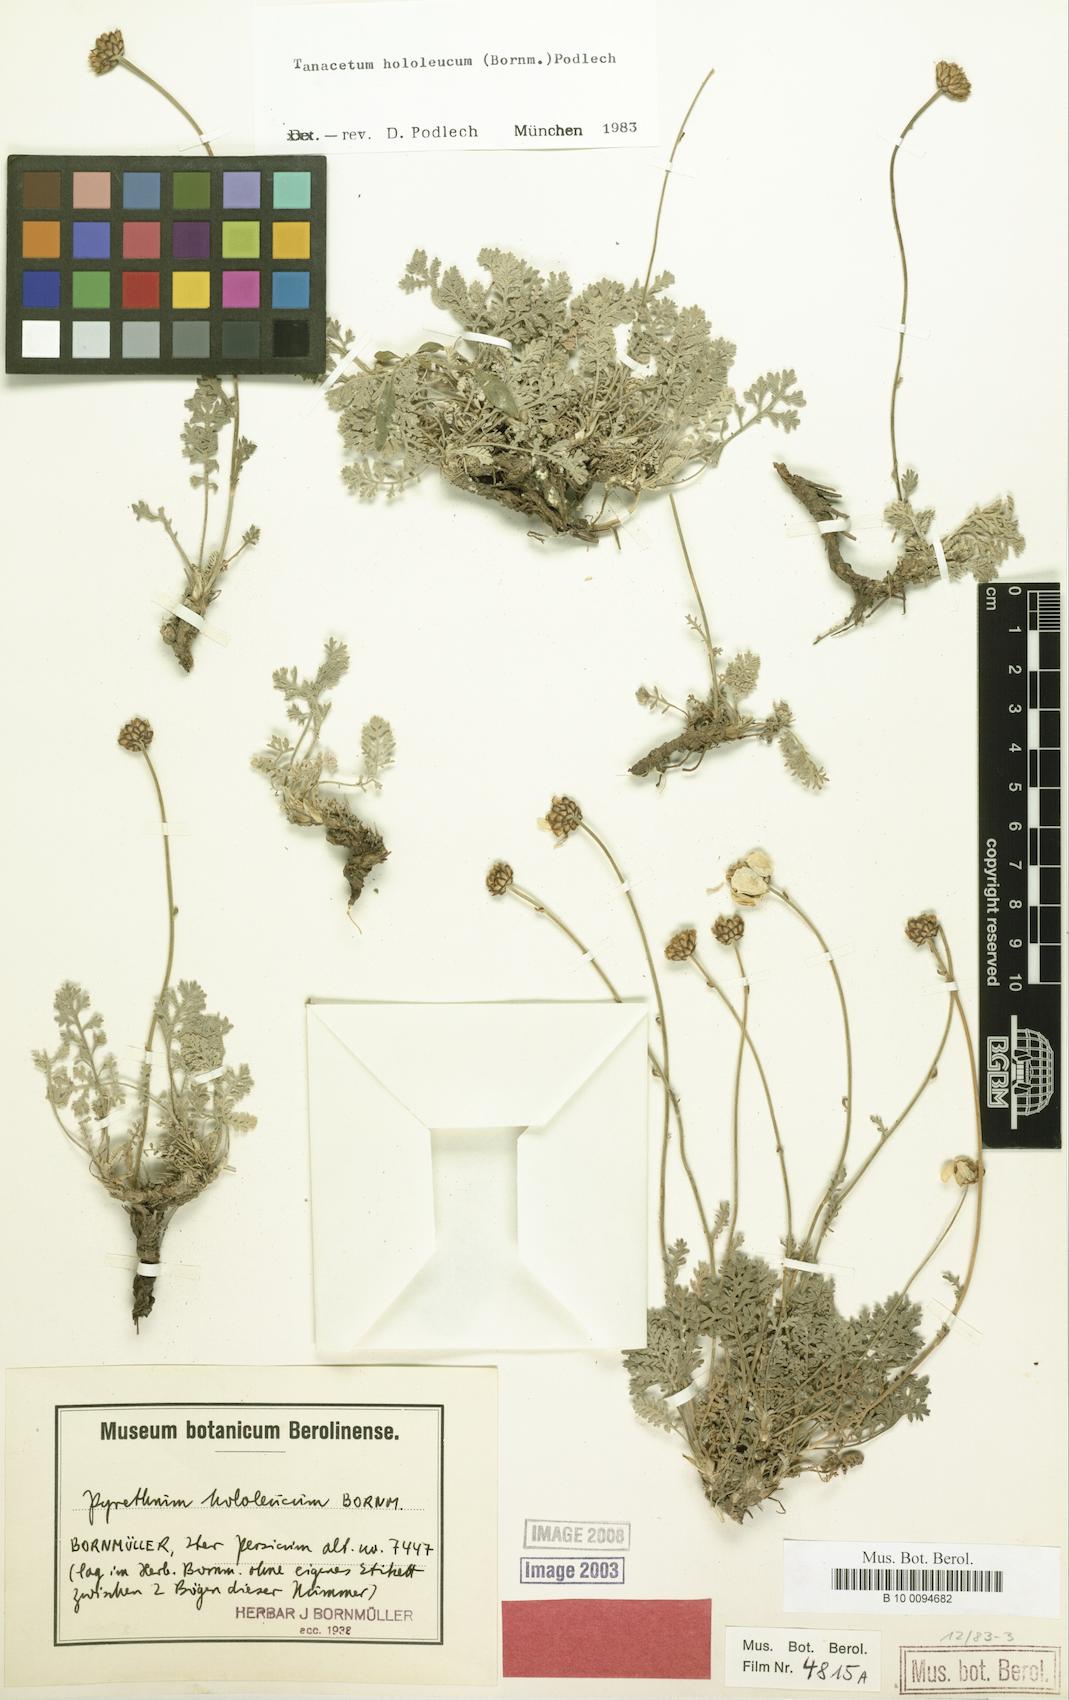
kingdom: Plantae
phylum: Tracheophyta
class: Magnoliopsida
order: Asterales
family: Asteraceae
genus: Tanacetum
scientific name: Tanacetum hololeucum
